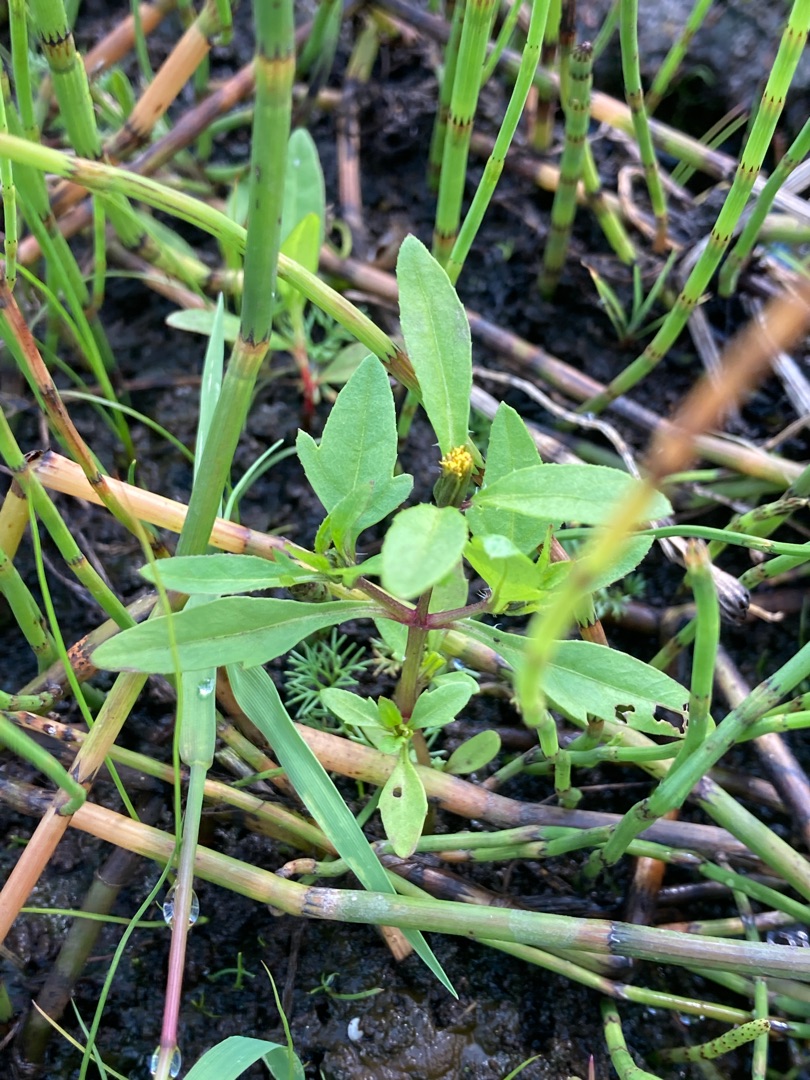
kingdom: Plantae
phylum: Tracheophyta
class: Magnoliopsida
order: Asterales
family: Asteraceae
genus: Bidens
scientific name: Bidens tripartita
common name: Fliget brøndsel
